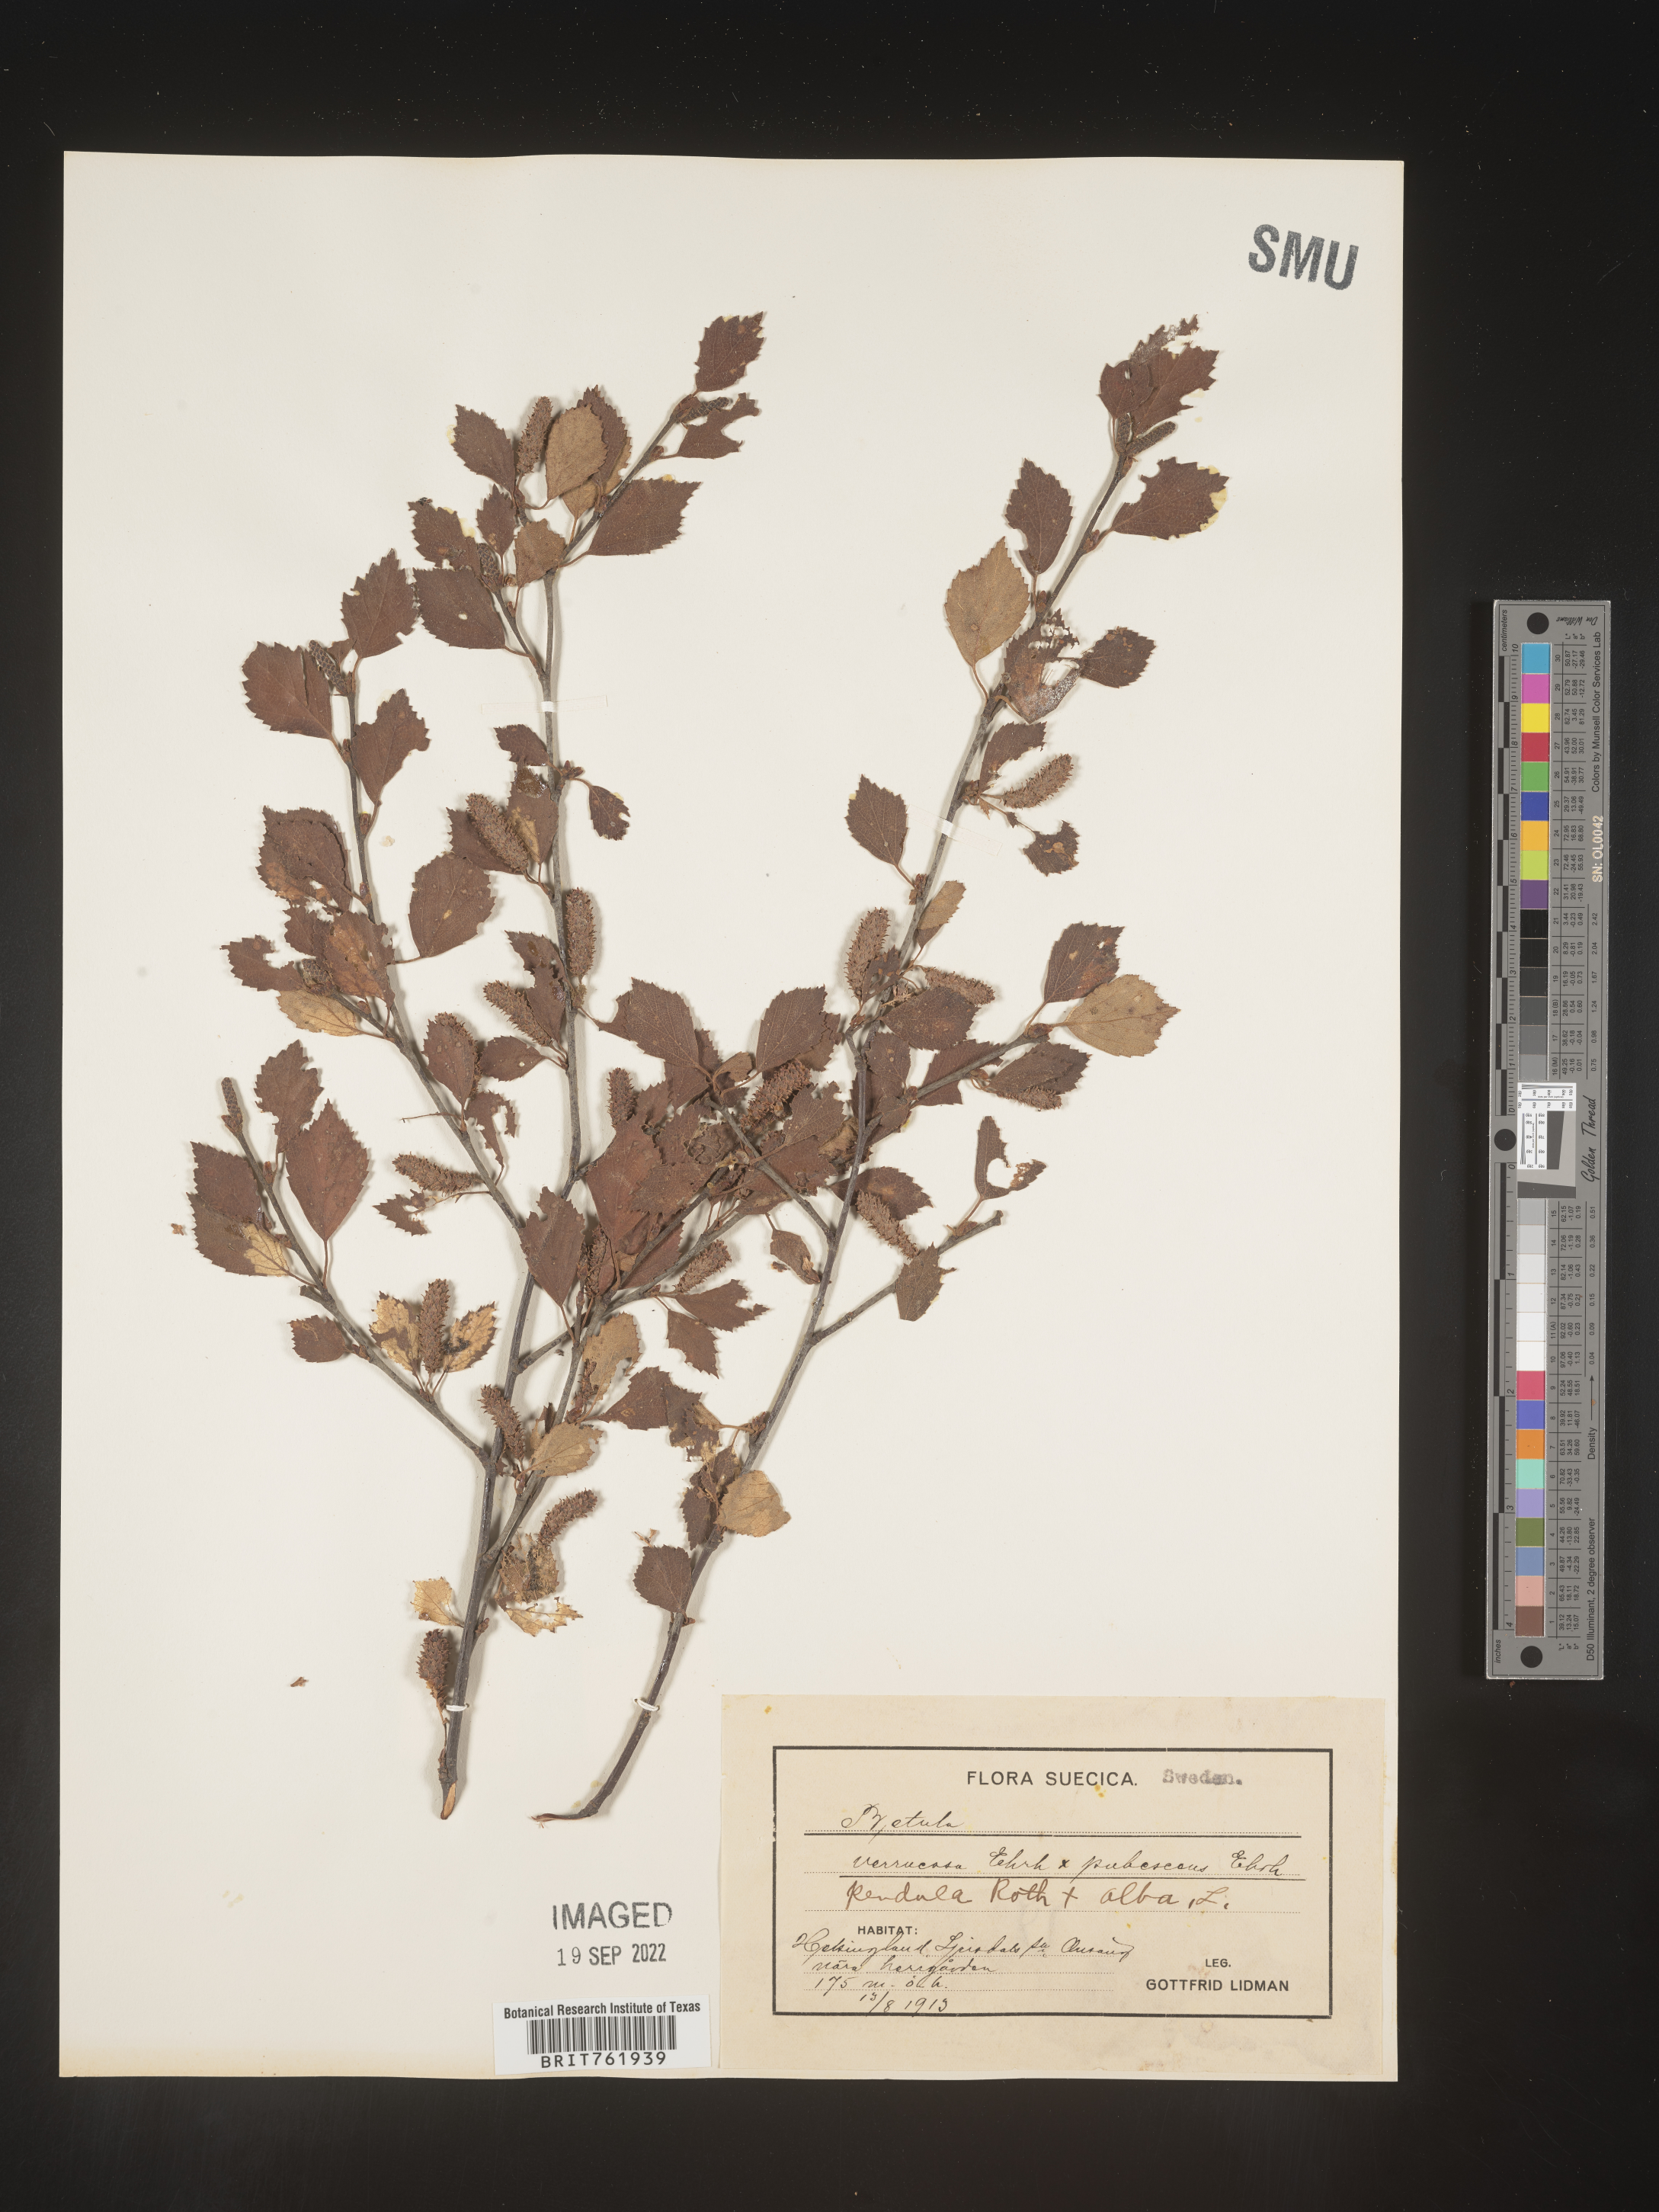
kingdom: Plantae
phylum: Tracheophyta
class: Magnoliopsida
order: Fagales
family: Betulaceae
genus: Betula
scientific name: Betula
